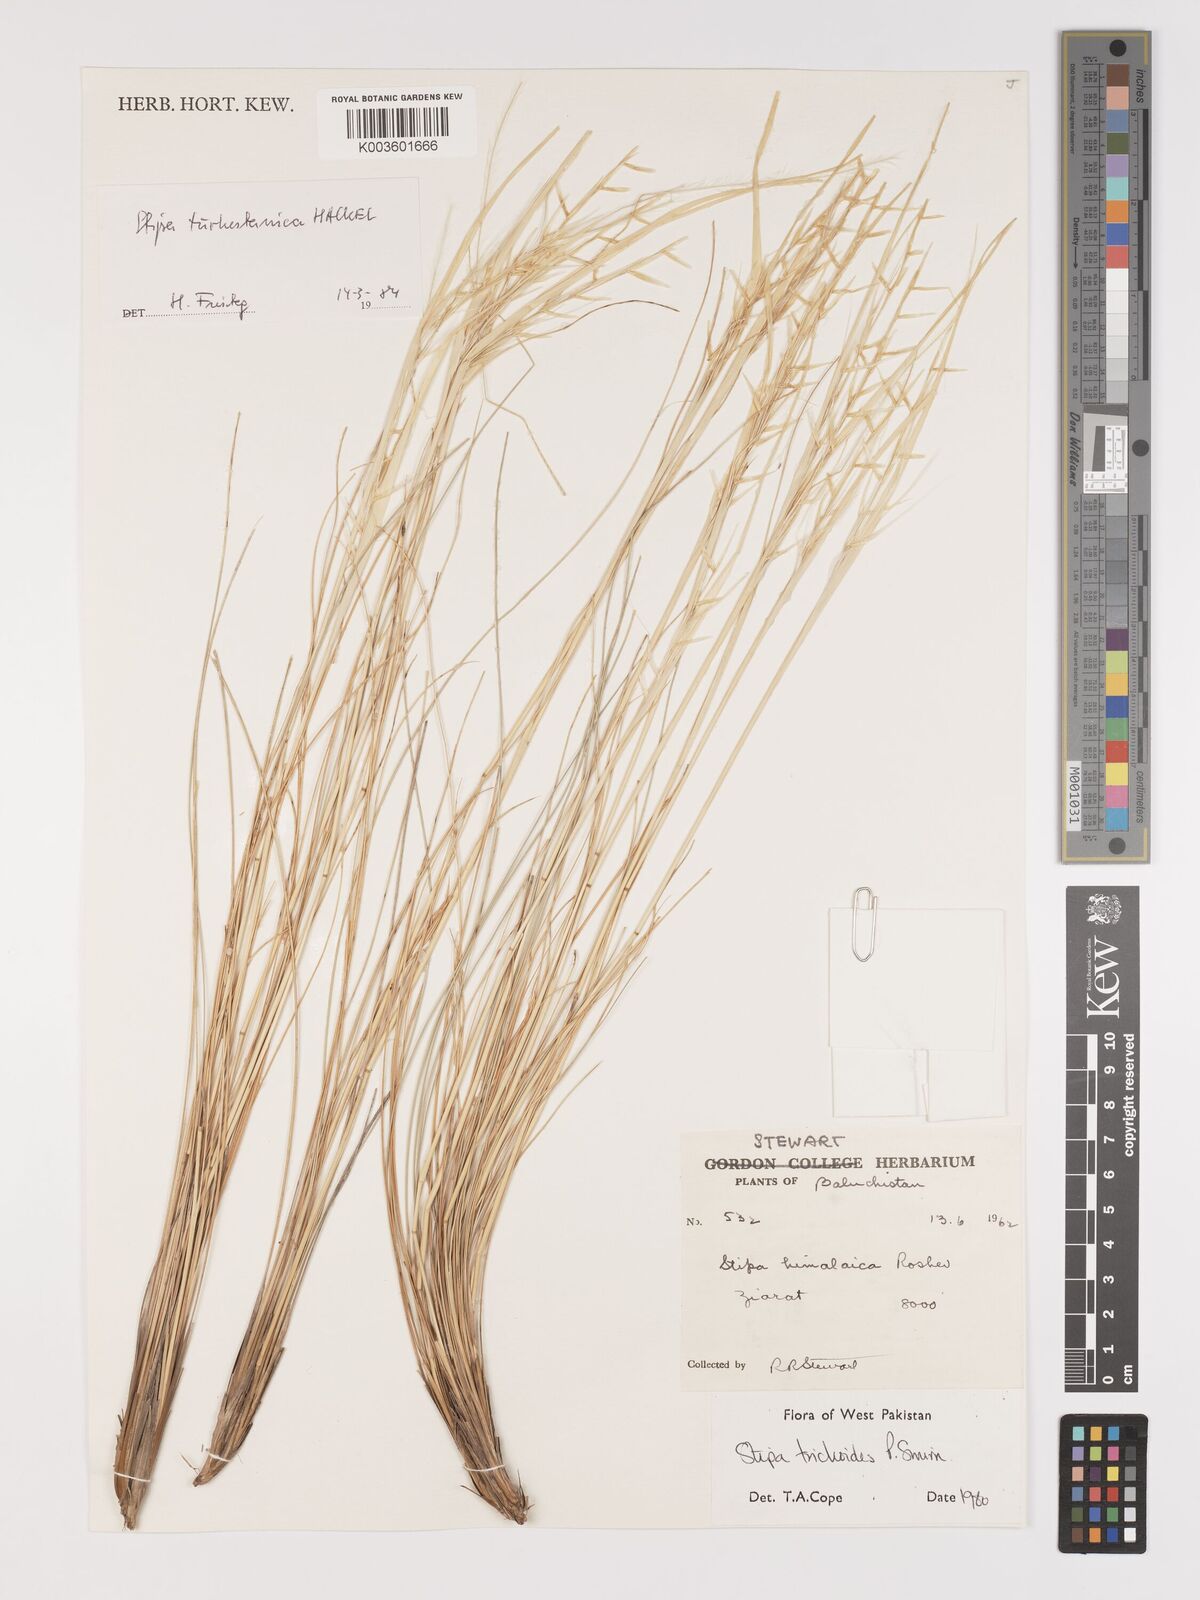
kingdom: Plantae
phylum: Tracheophyta
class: Liliopsida
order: Poales
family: Poaceae
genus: Stipa
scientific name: Stipa turkestanica
